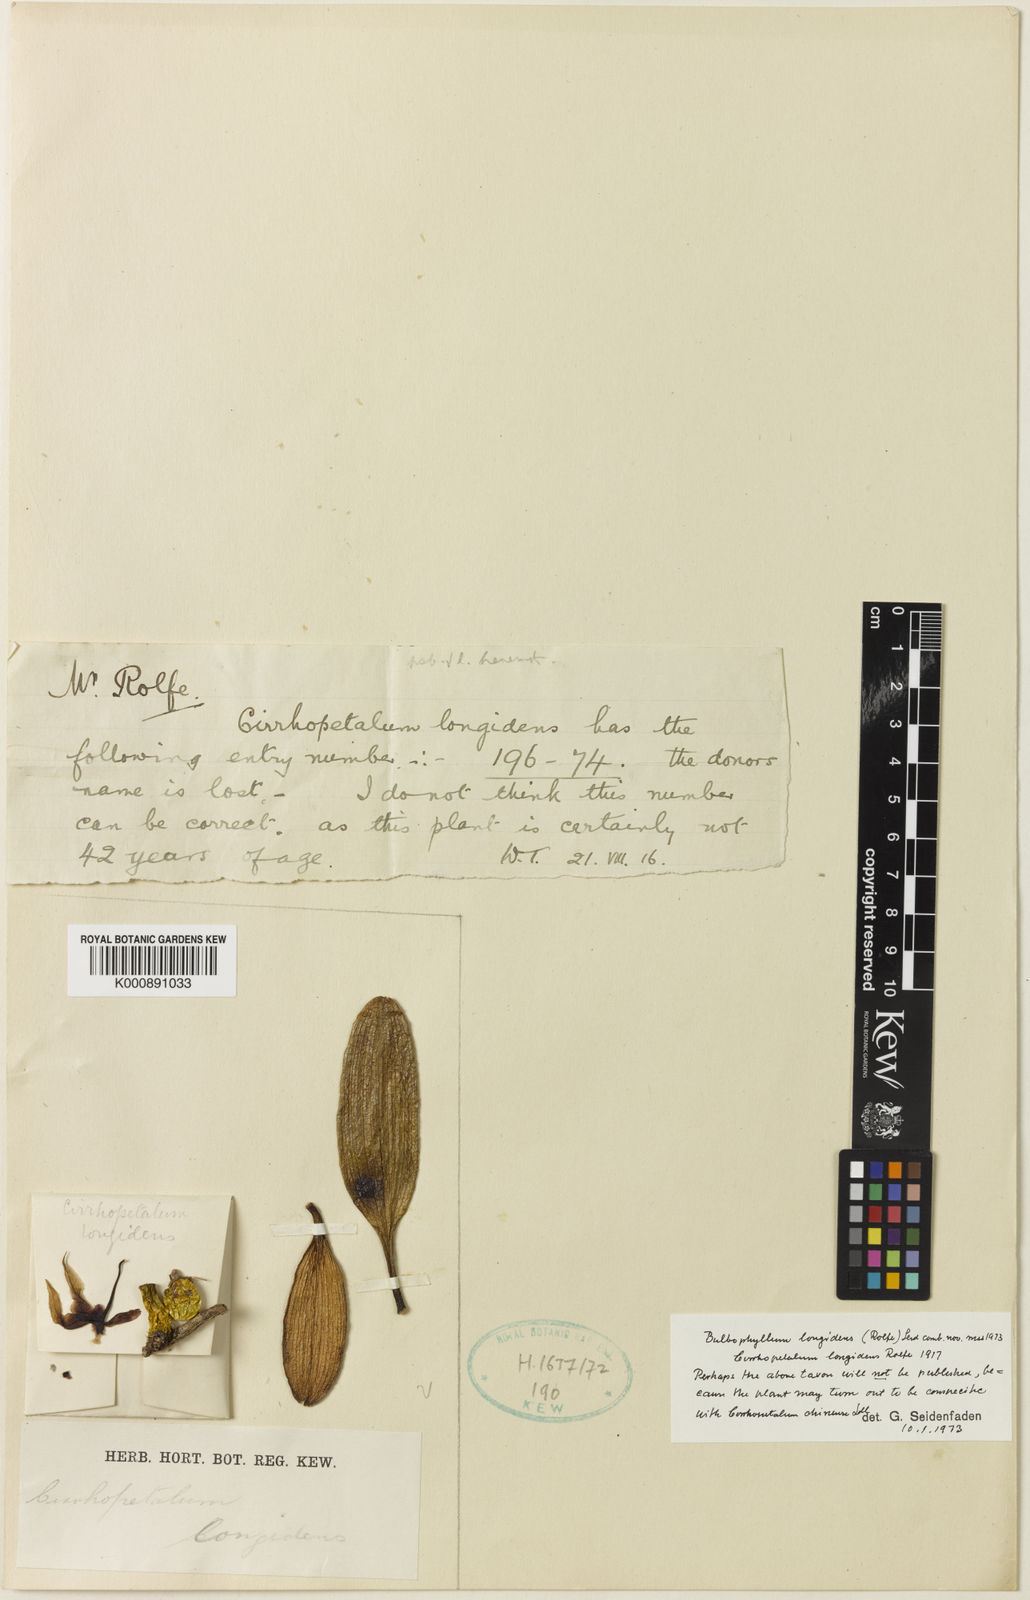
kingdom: Plantae
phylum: Tracheophyta
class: Liliopsida
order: Asparagales
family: Orchidaceae
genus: Bulbophyllum
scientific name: Bulbophyllum boninense
